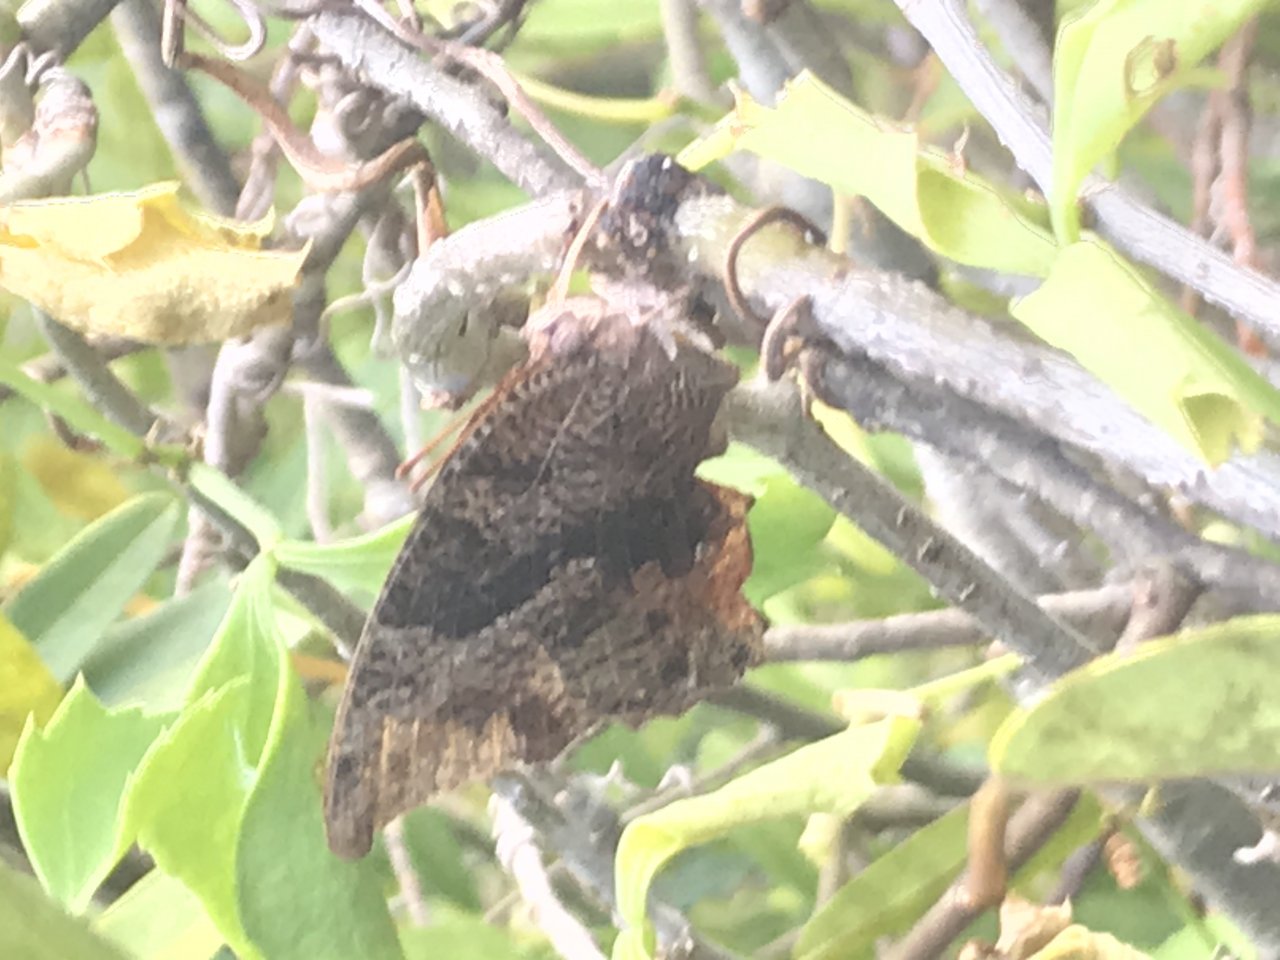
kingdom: Animalia
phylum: Arthropoda
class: Insecta
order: Lepidoptera
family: Nymphalidae
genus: Cymatogramma
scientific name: Cymatogramma echemus
